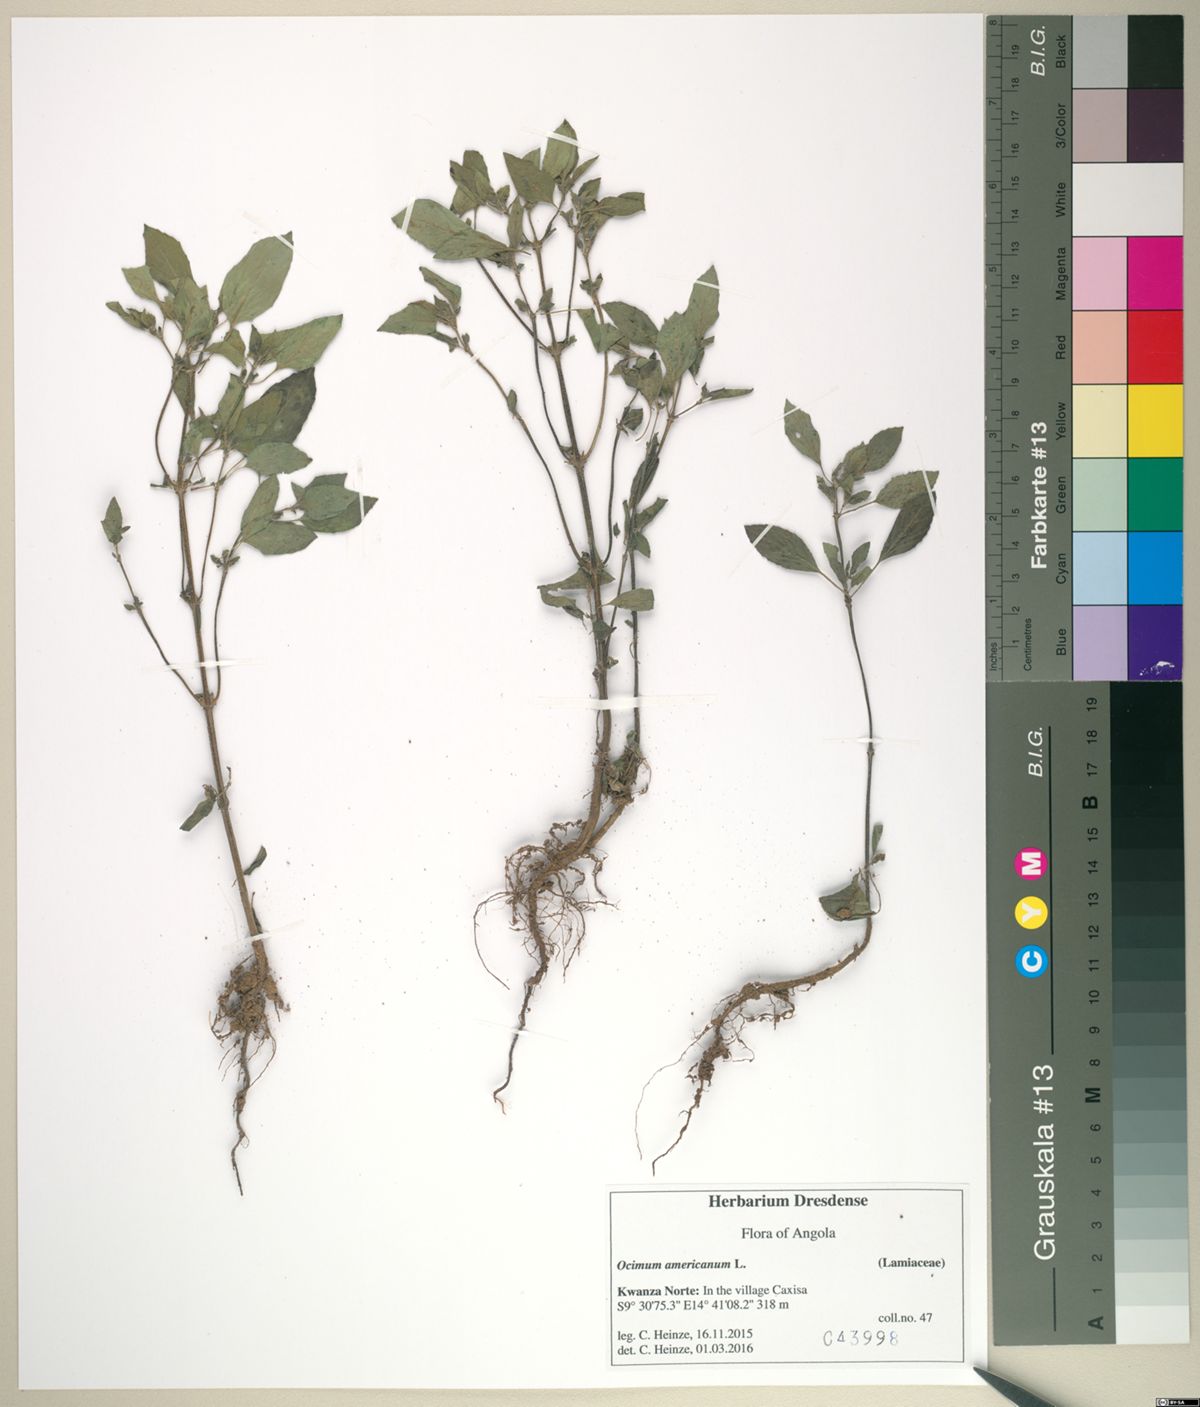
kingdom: Plantae
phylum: Tracheophyta
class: Magnoliopsida
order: Lamiales
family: Lamiaceae
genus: Ocimum
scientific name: Ocimum americanum
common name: American basil
